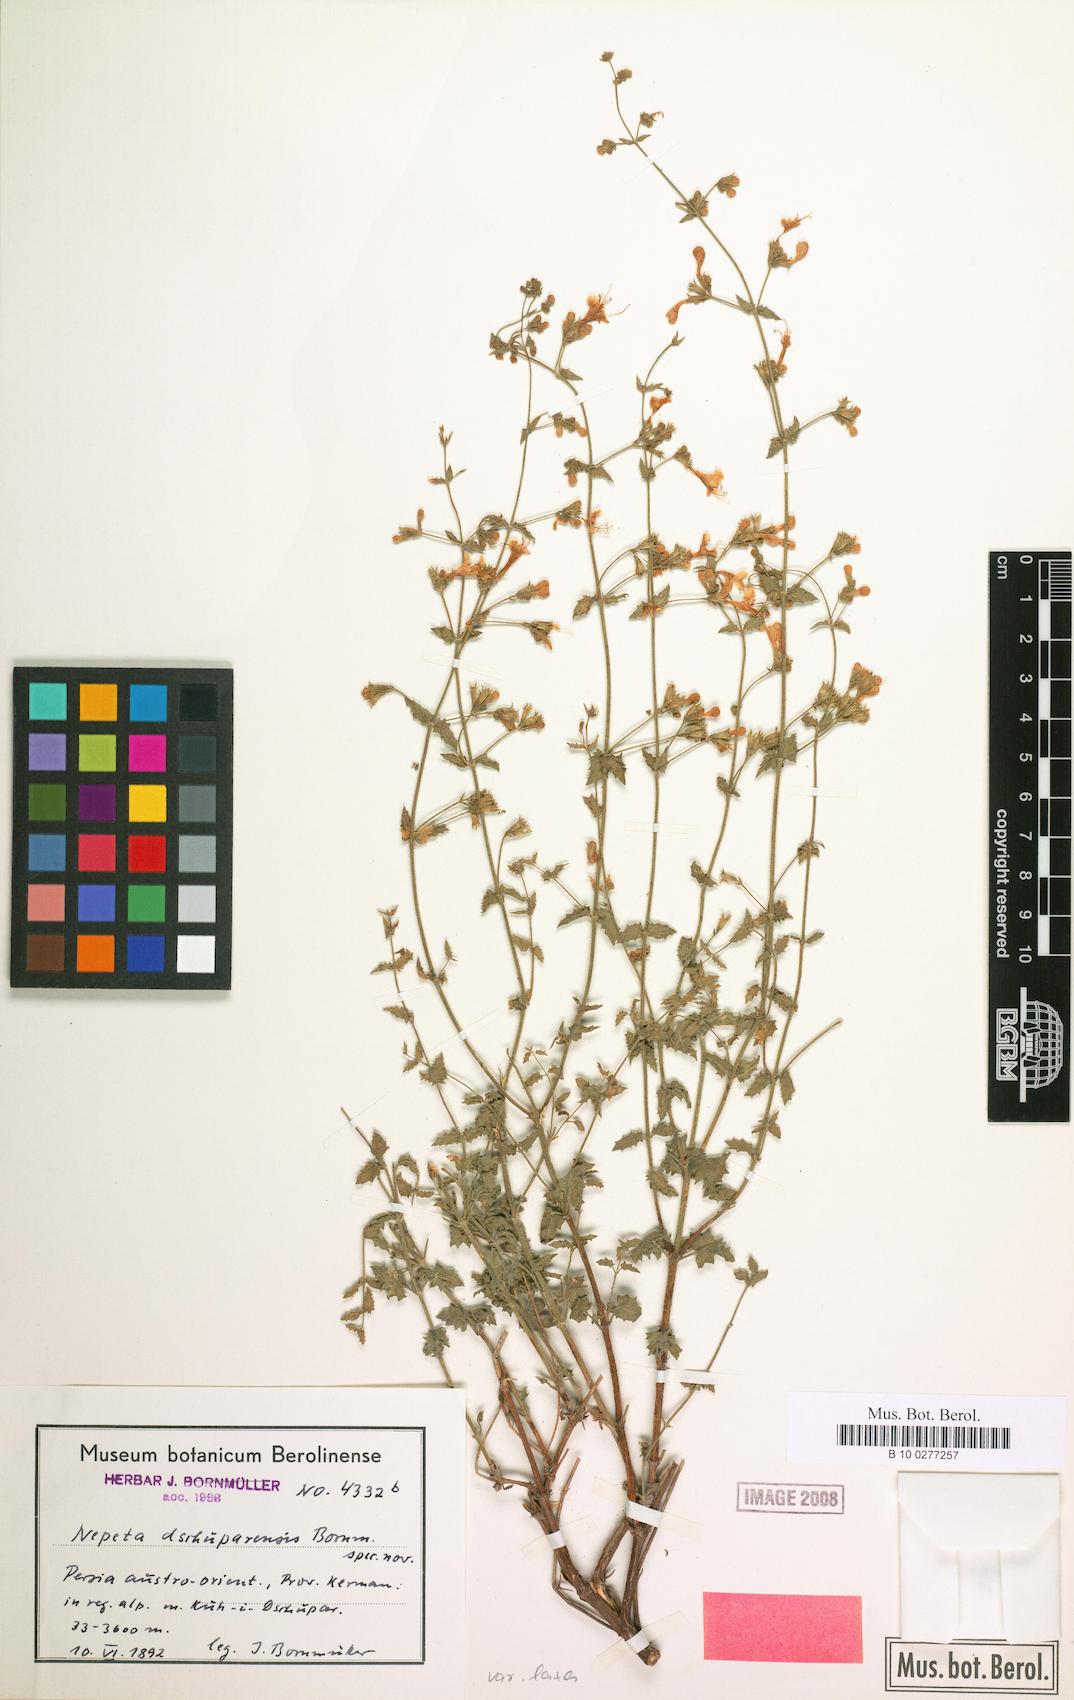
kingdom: Plantae
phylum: Tracheophyta
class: Magnoliopsida
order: Lamiales
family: Lamiaceae
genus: Nepeta
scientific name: Nepeta dschuparensis
